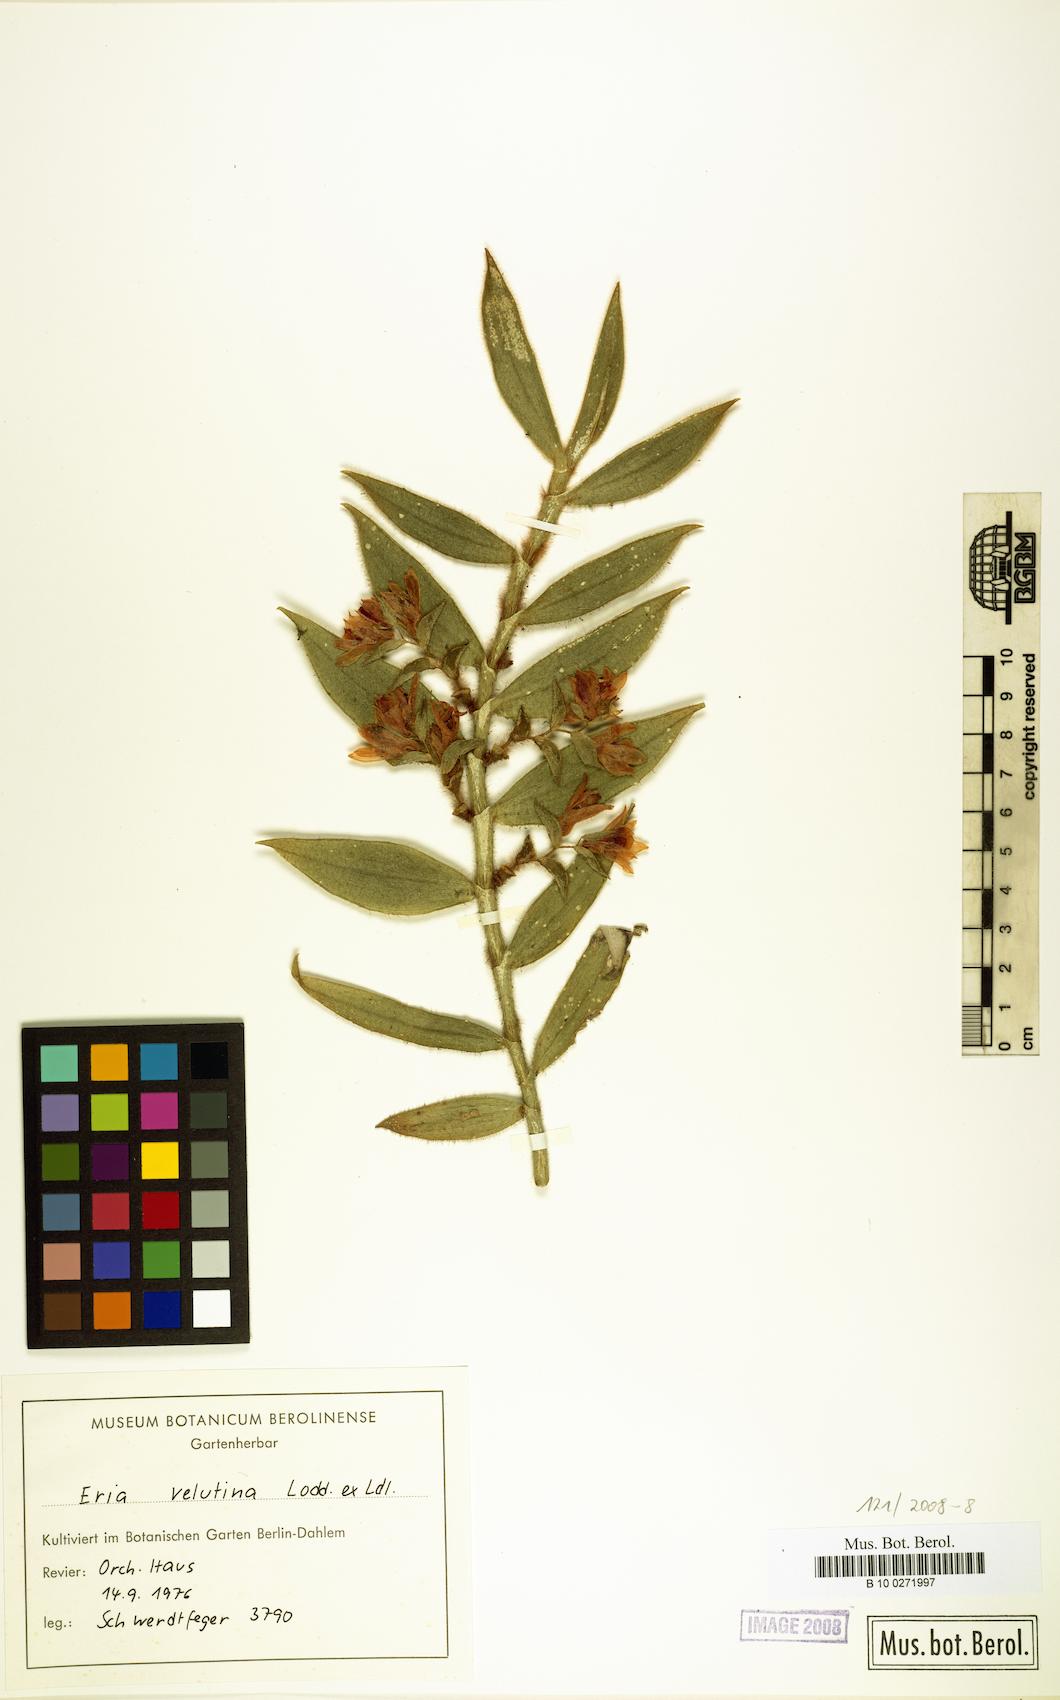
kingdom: Plantae
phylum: Tracheophyta
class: Liliopsida
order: Asparagales
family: Orchidaceae
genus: Trichotosia
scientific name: Trichotosia
